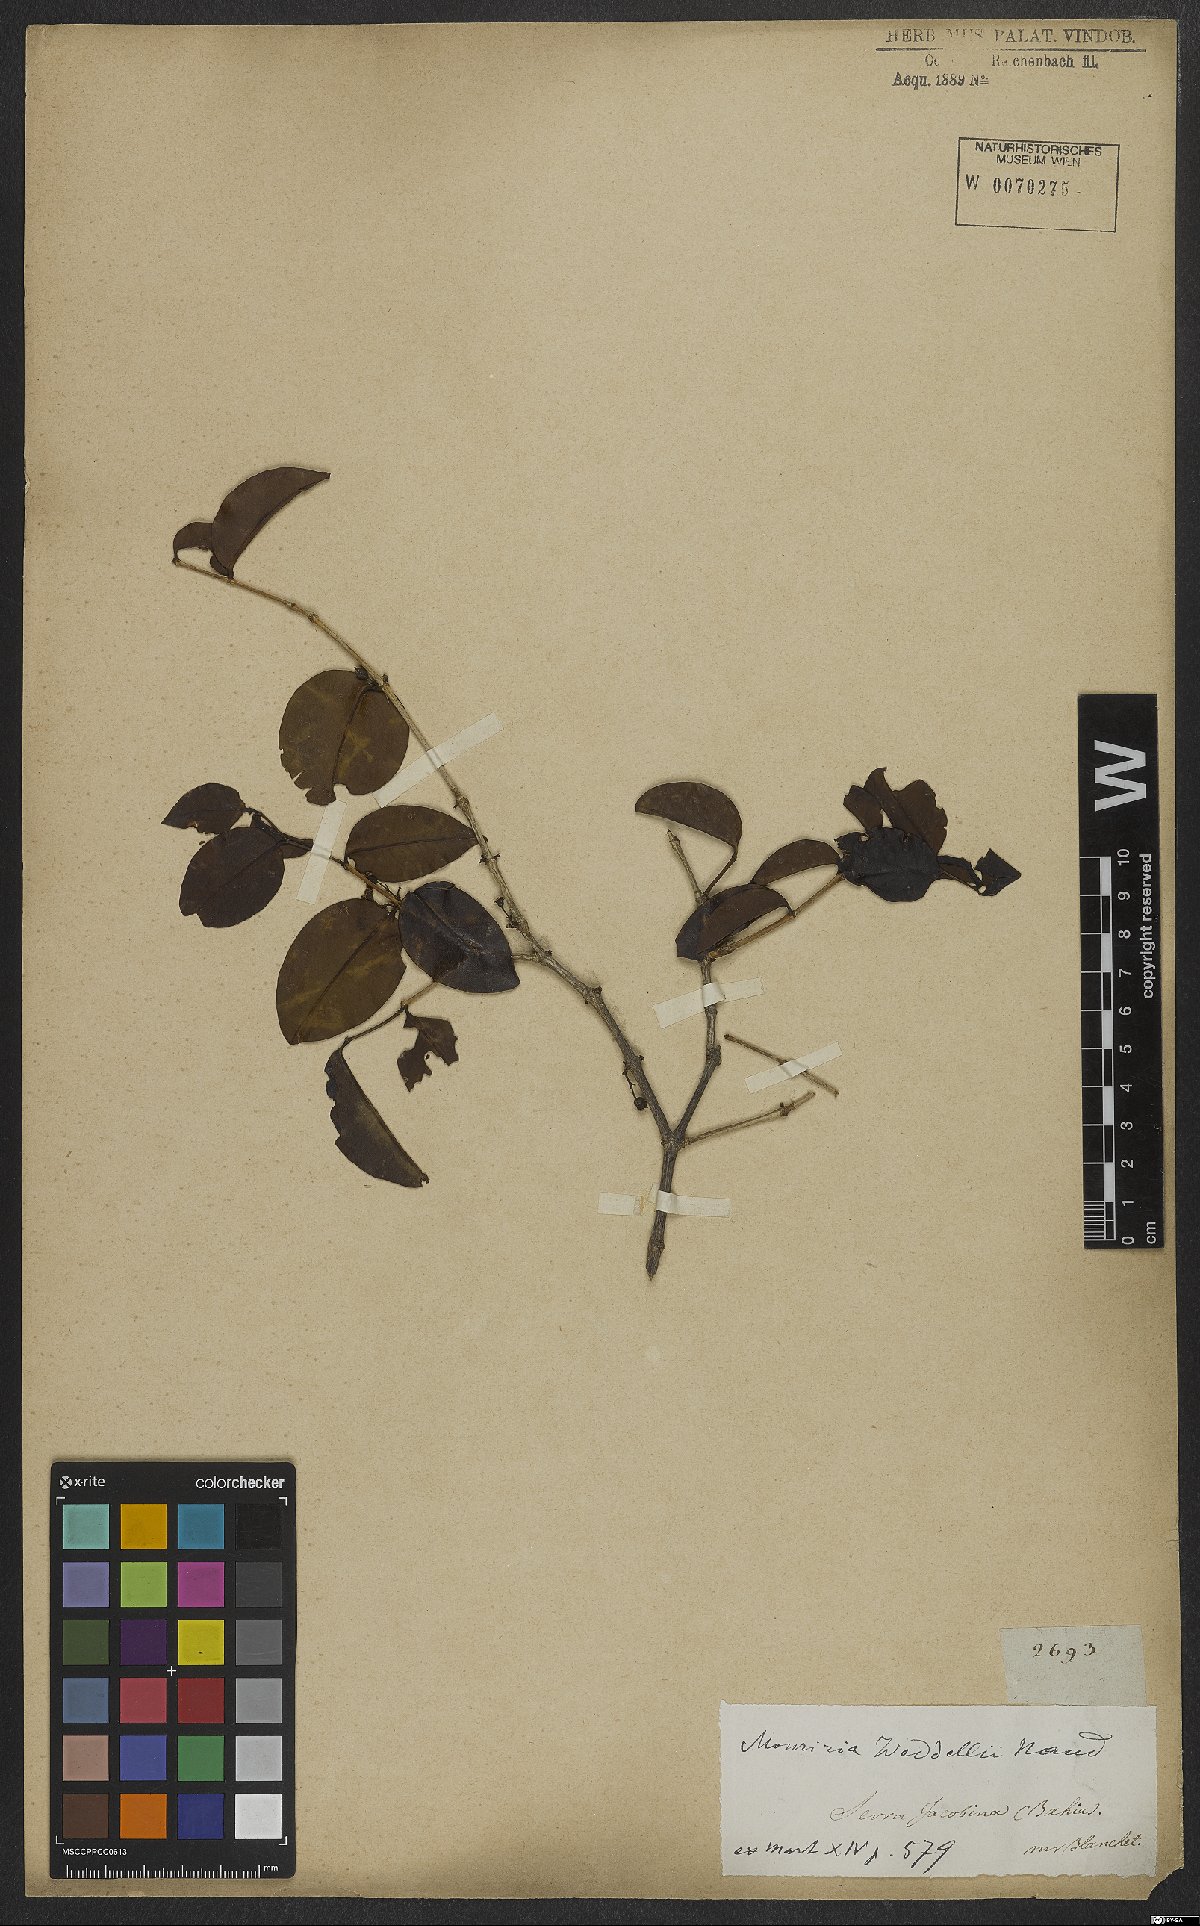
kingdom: Plantae
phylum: Tracheophyta
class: Magnoliopsida
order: Myrtales
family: Melastomataceae
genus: Mouriri
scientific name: Mouriri guianensis
